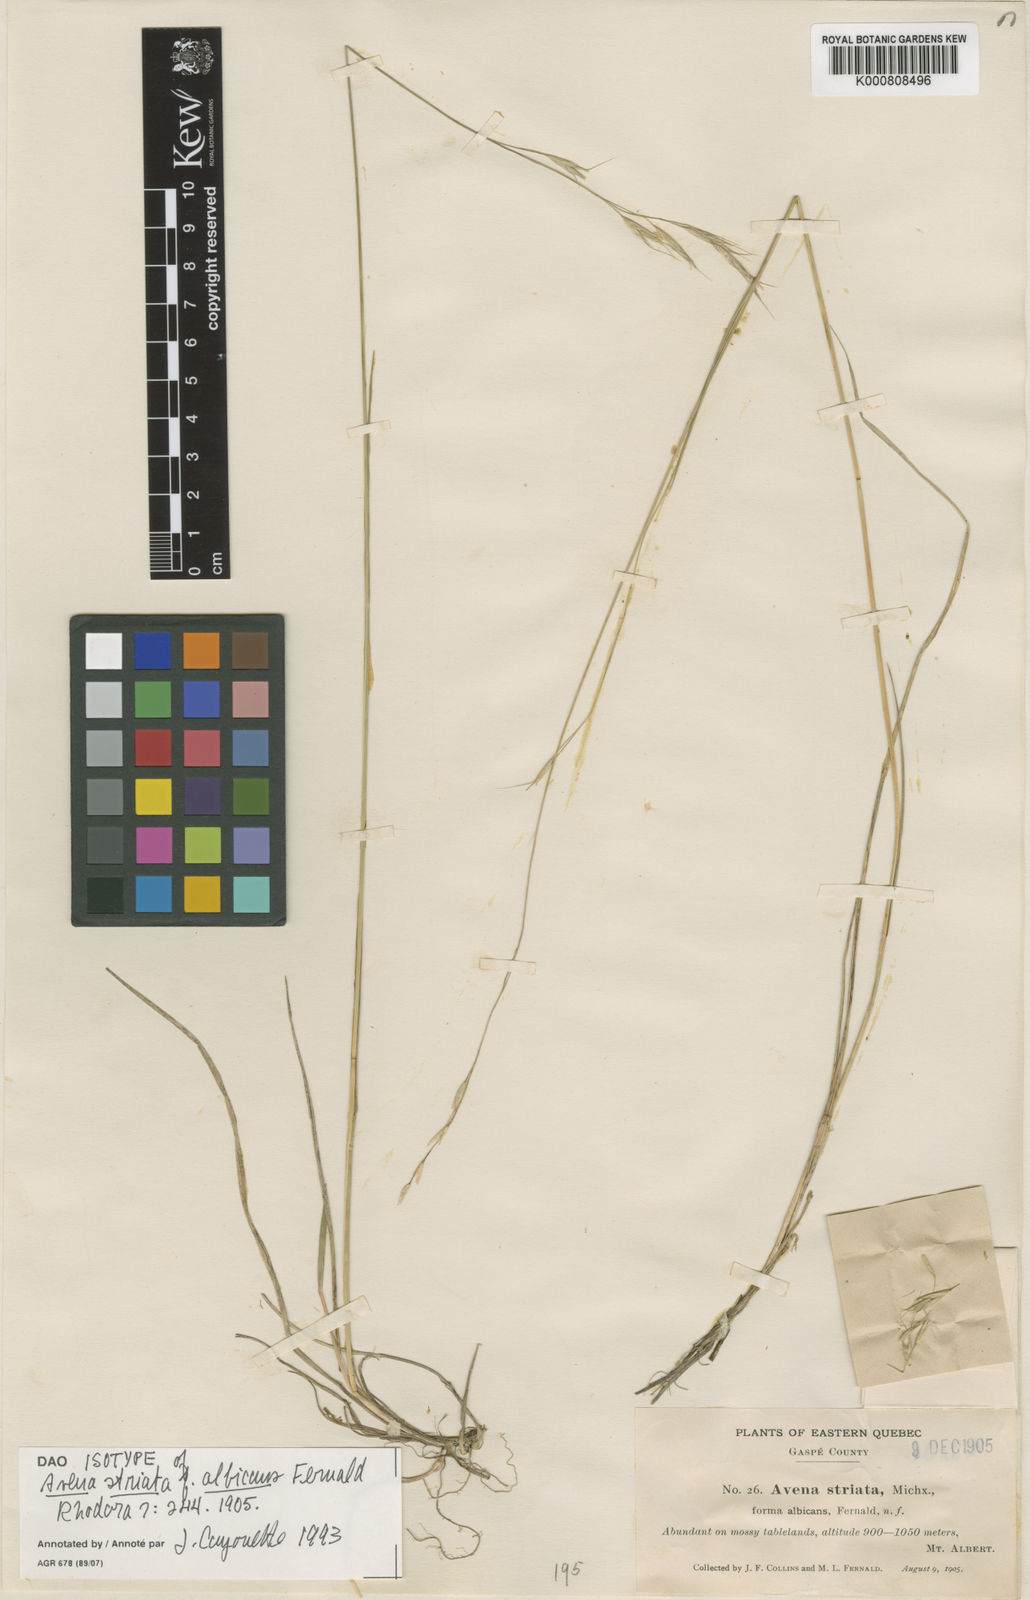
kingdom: Plantae
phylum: Tracheophyta
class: Liliopsida
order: Poales
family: Poaceae
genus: Schizachne
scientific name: Schizachne purpurascens
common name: False melic
